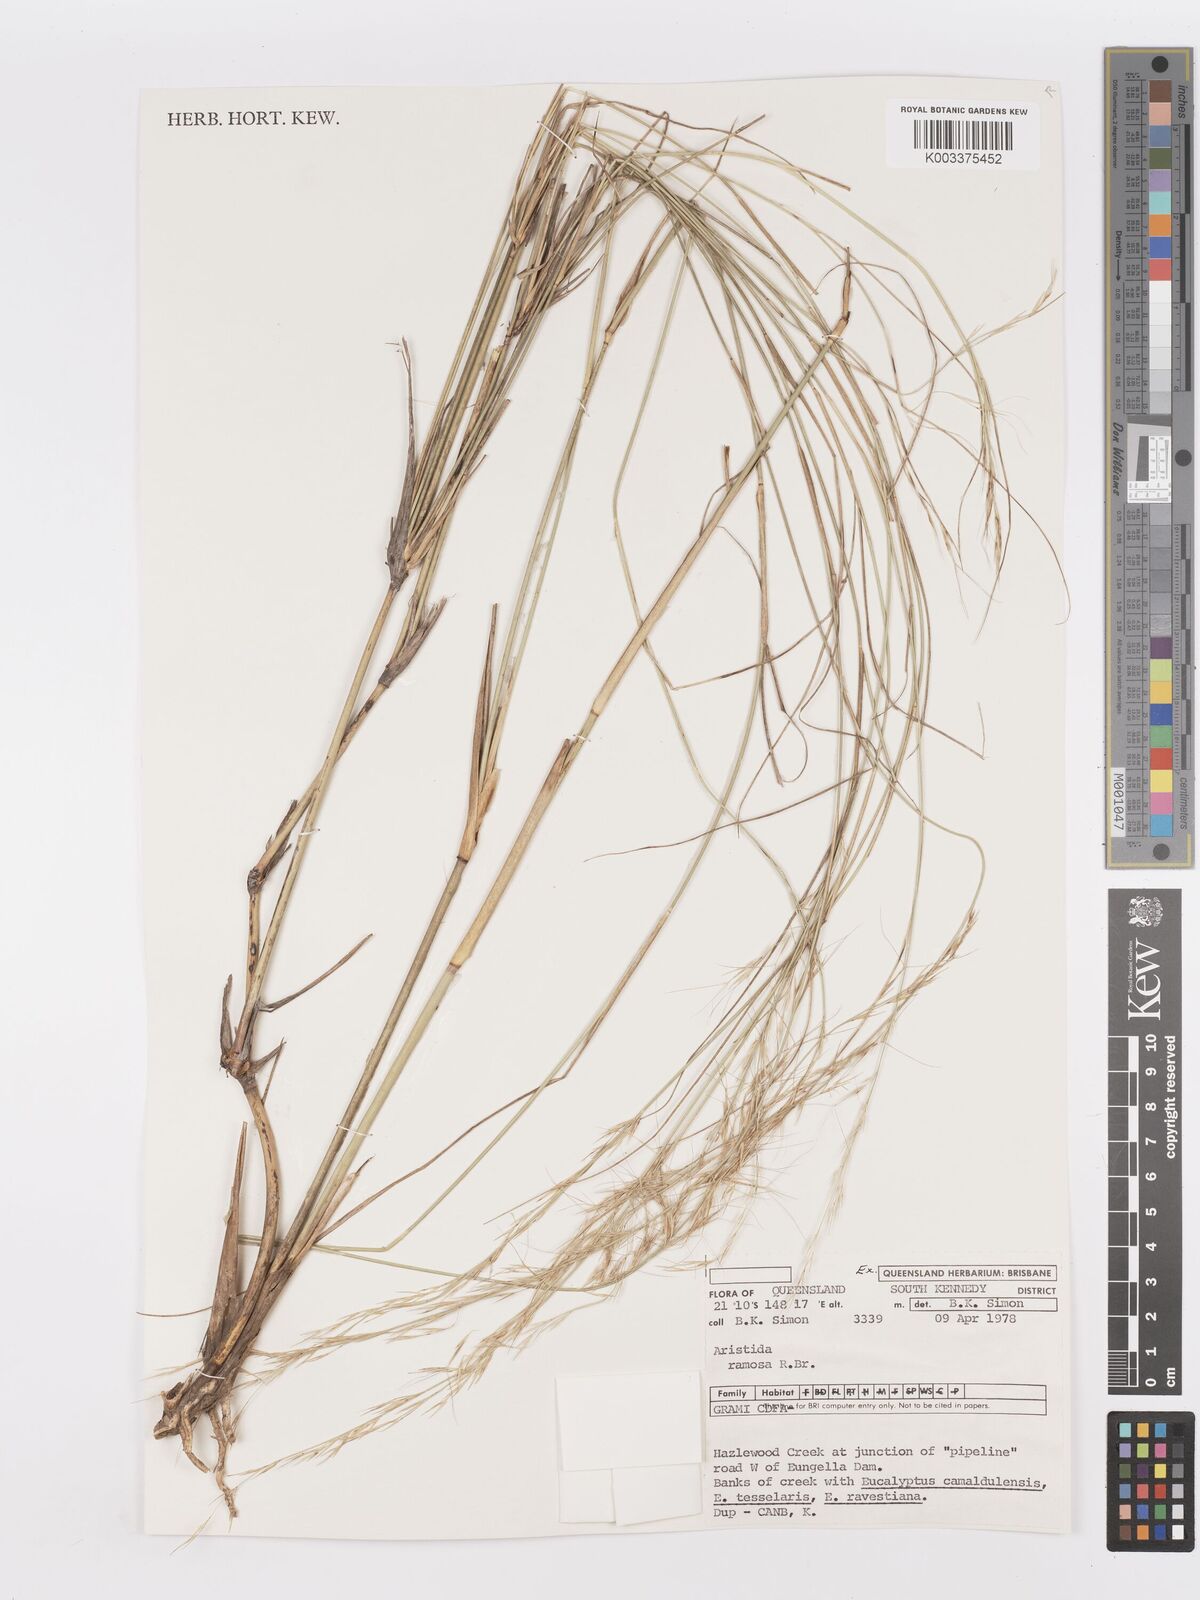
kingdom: Plantae
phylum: Tracheophyta
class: Liliopsida
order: Poales
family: Poaceae
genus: Aristida
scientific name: Aristida ramosa
